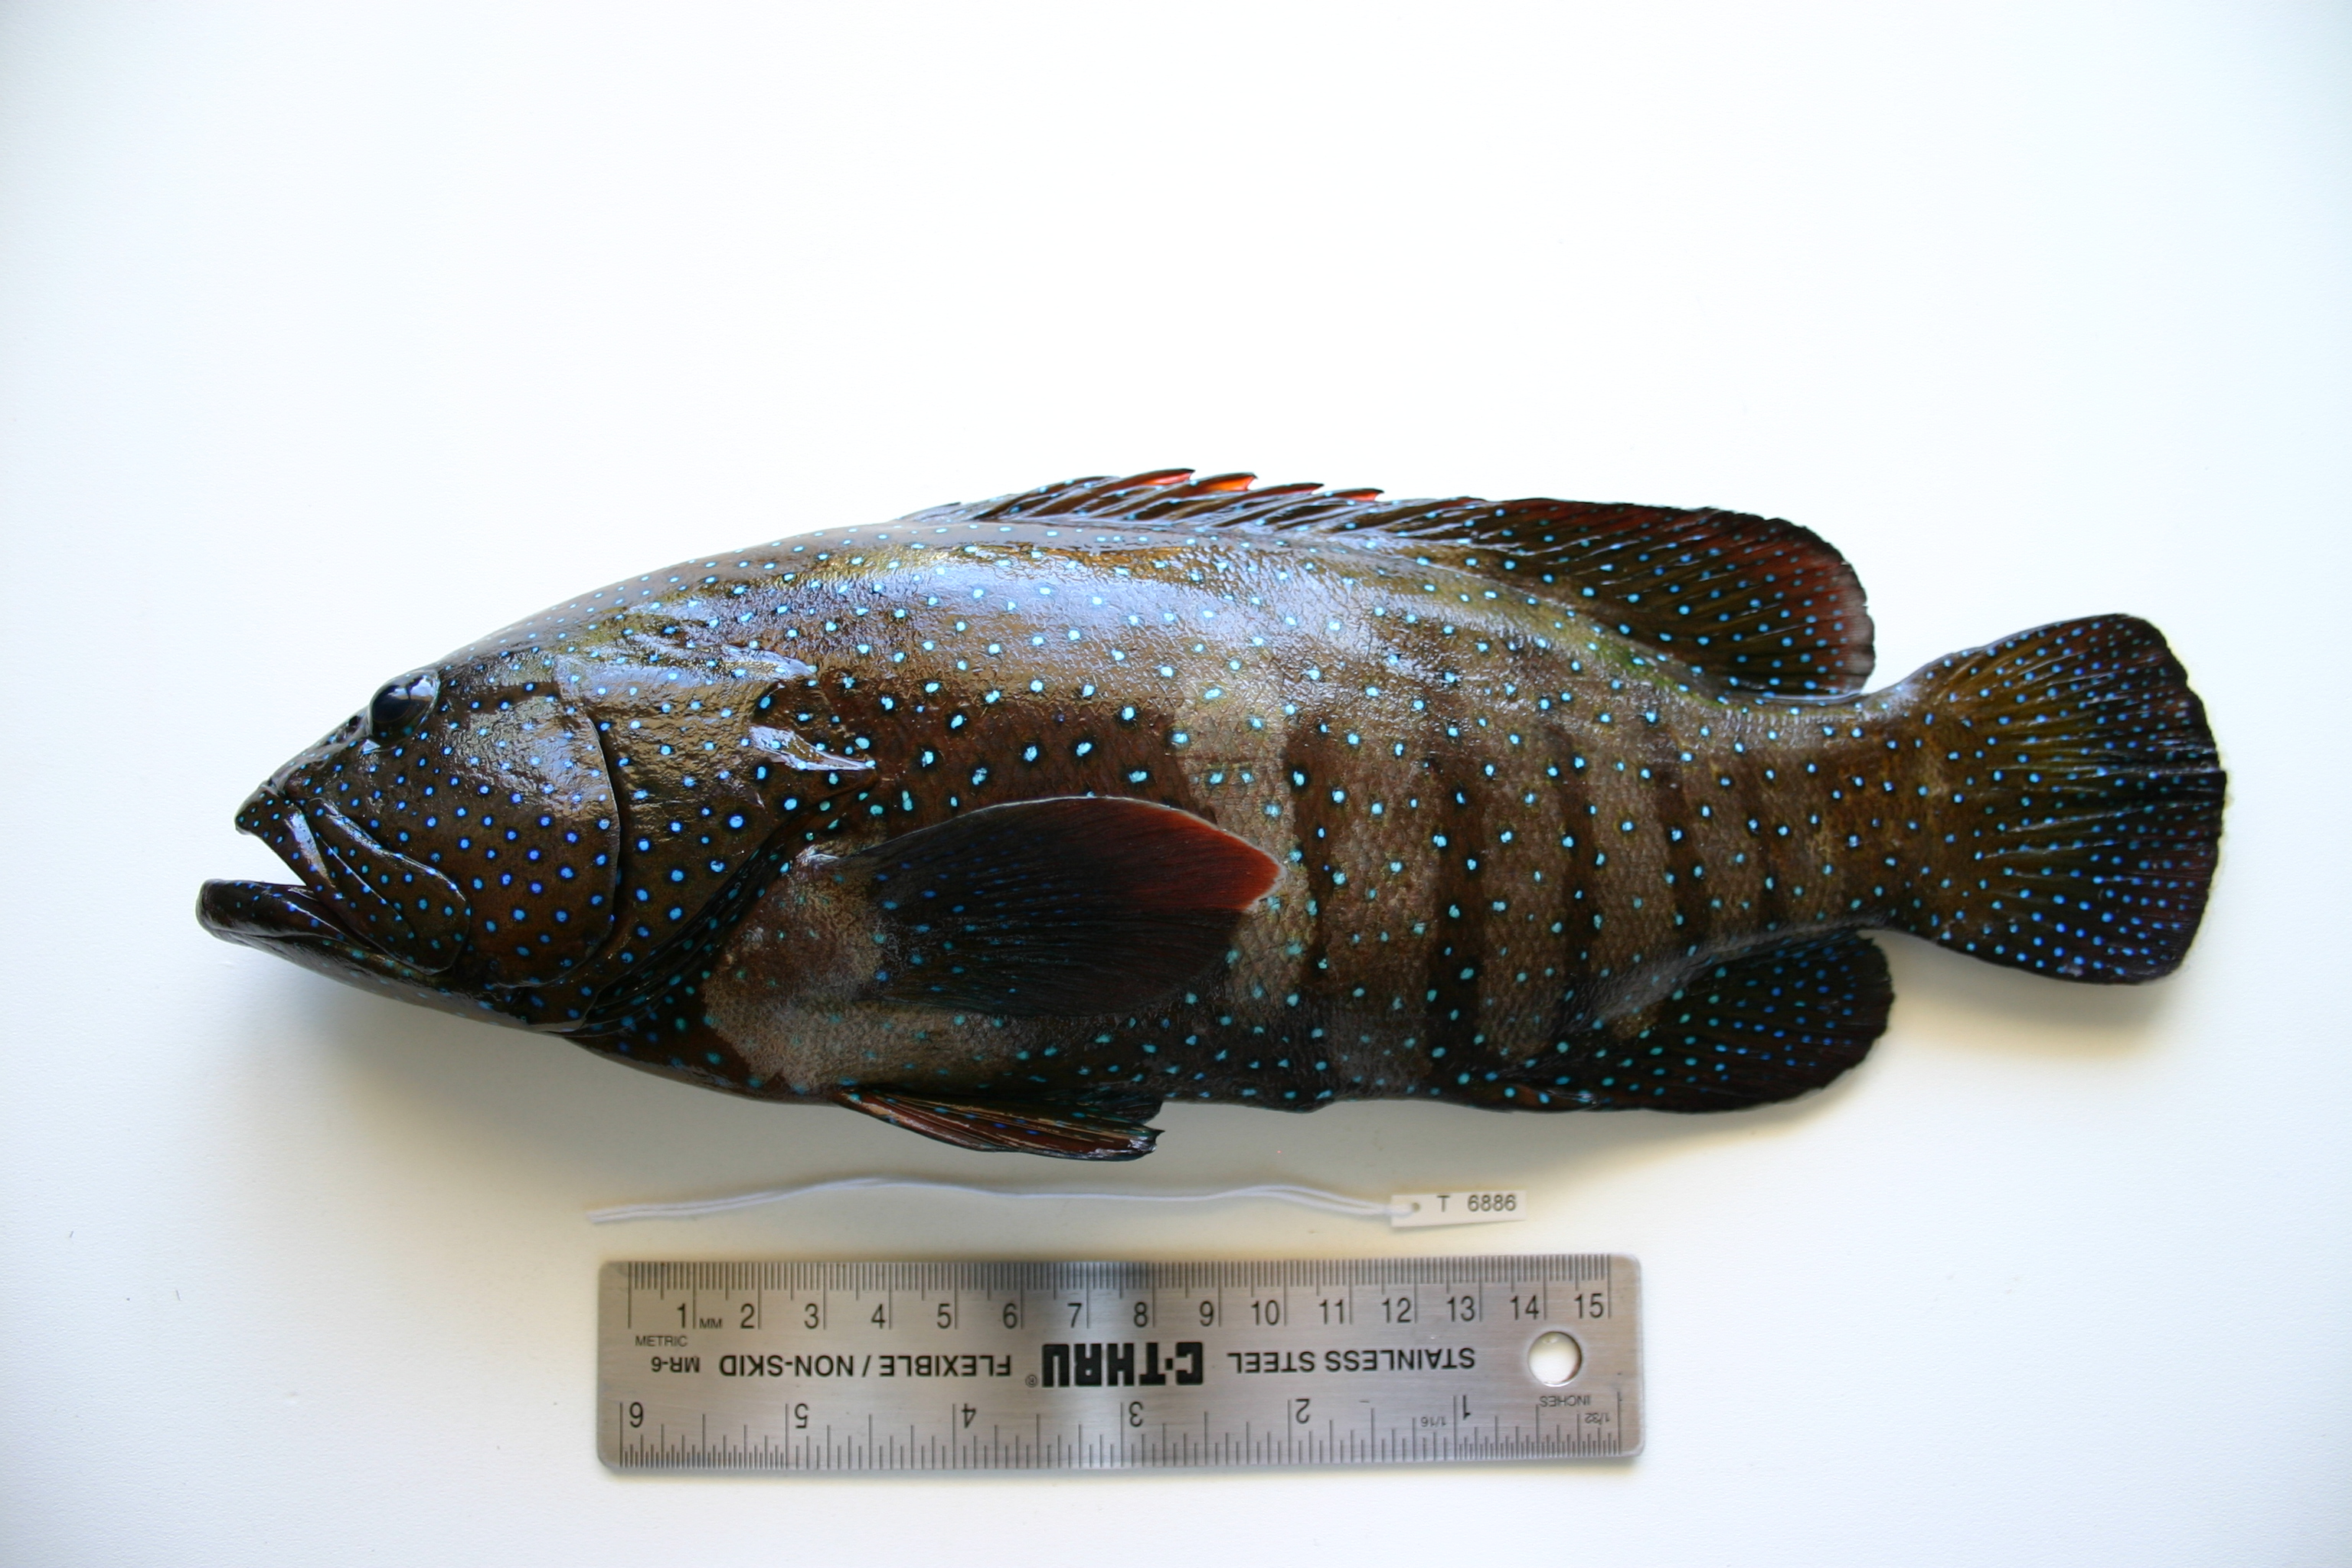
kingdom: Animalia
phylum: Chordata
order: Perciformes
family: Serranidae
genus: Cephalopholis
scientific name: Cephalopholis argus
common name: Peacock grouper
